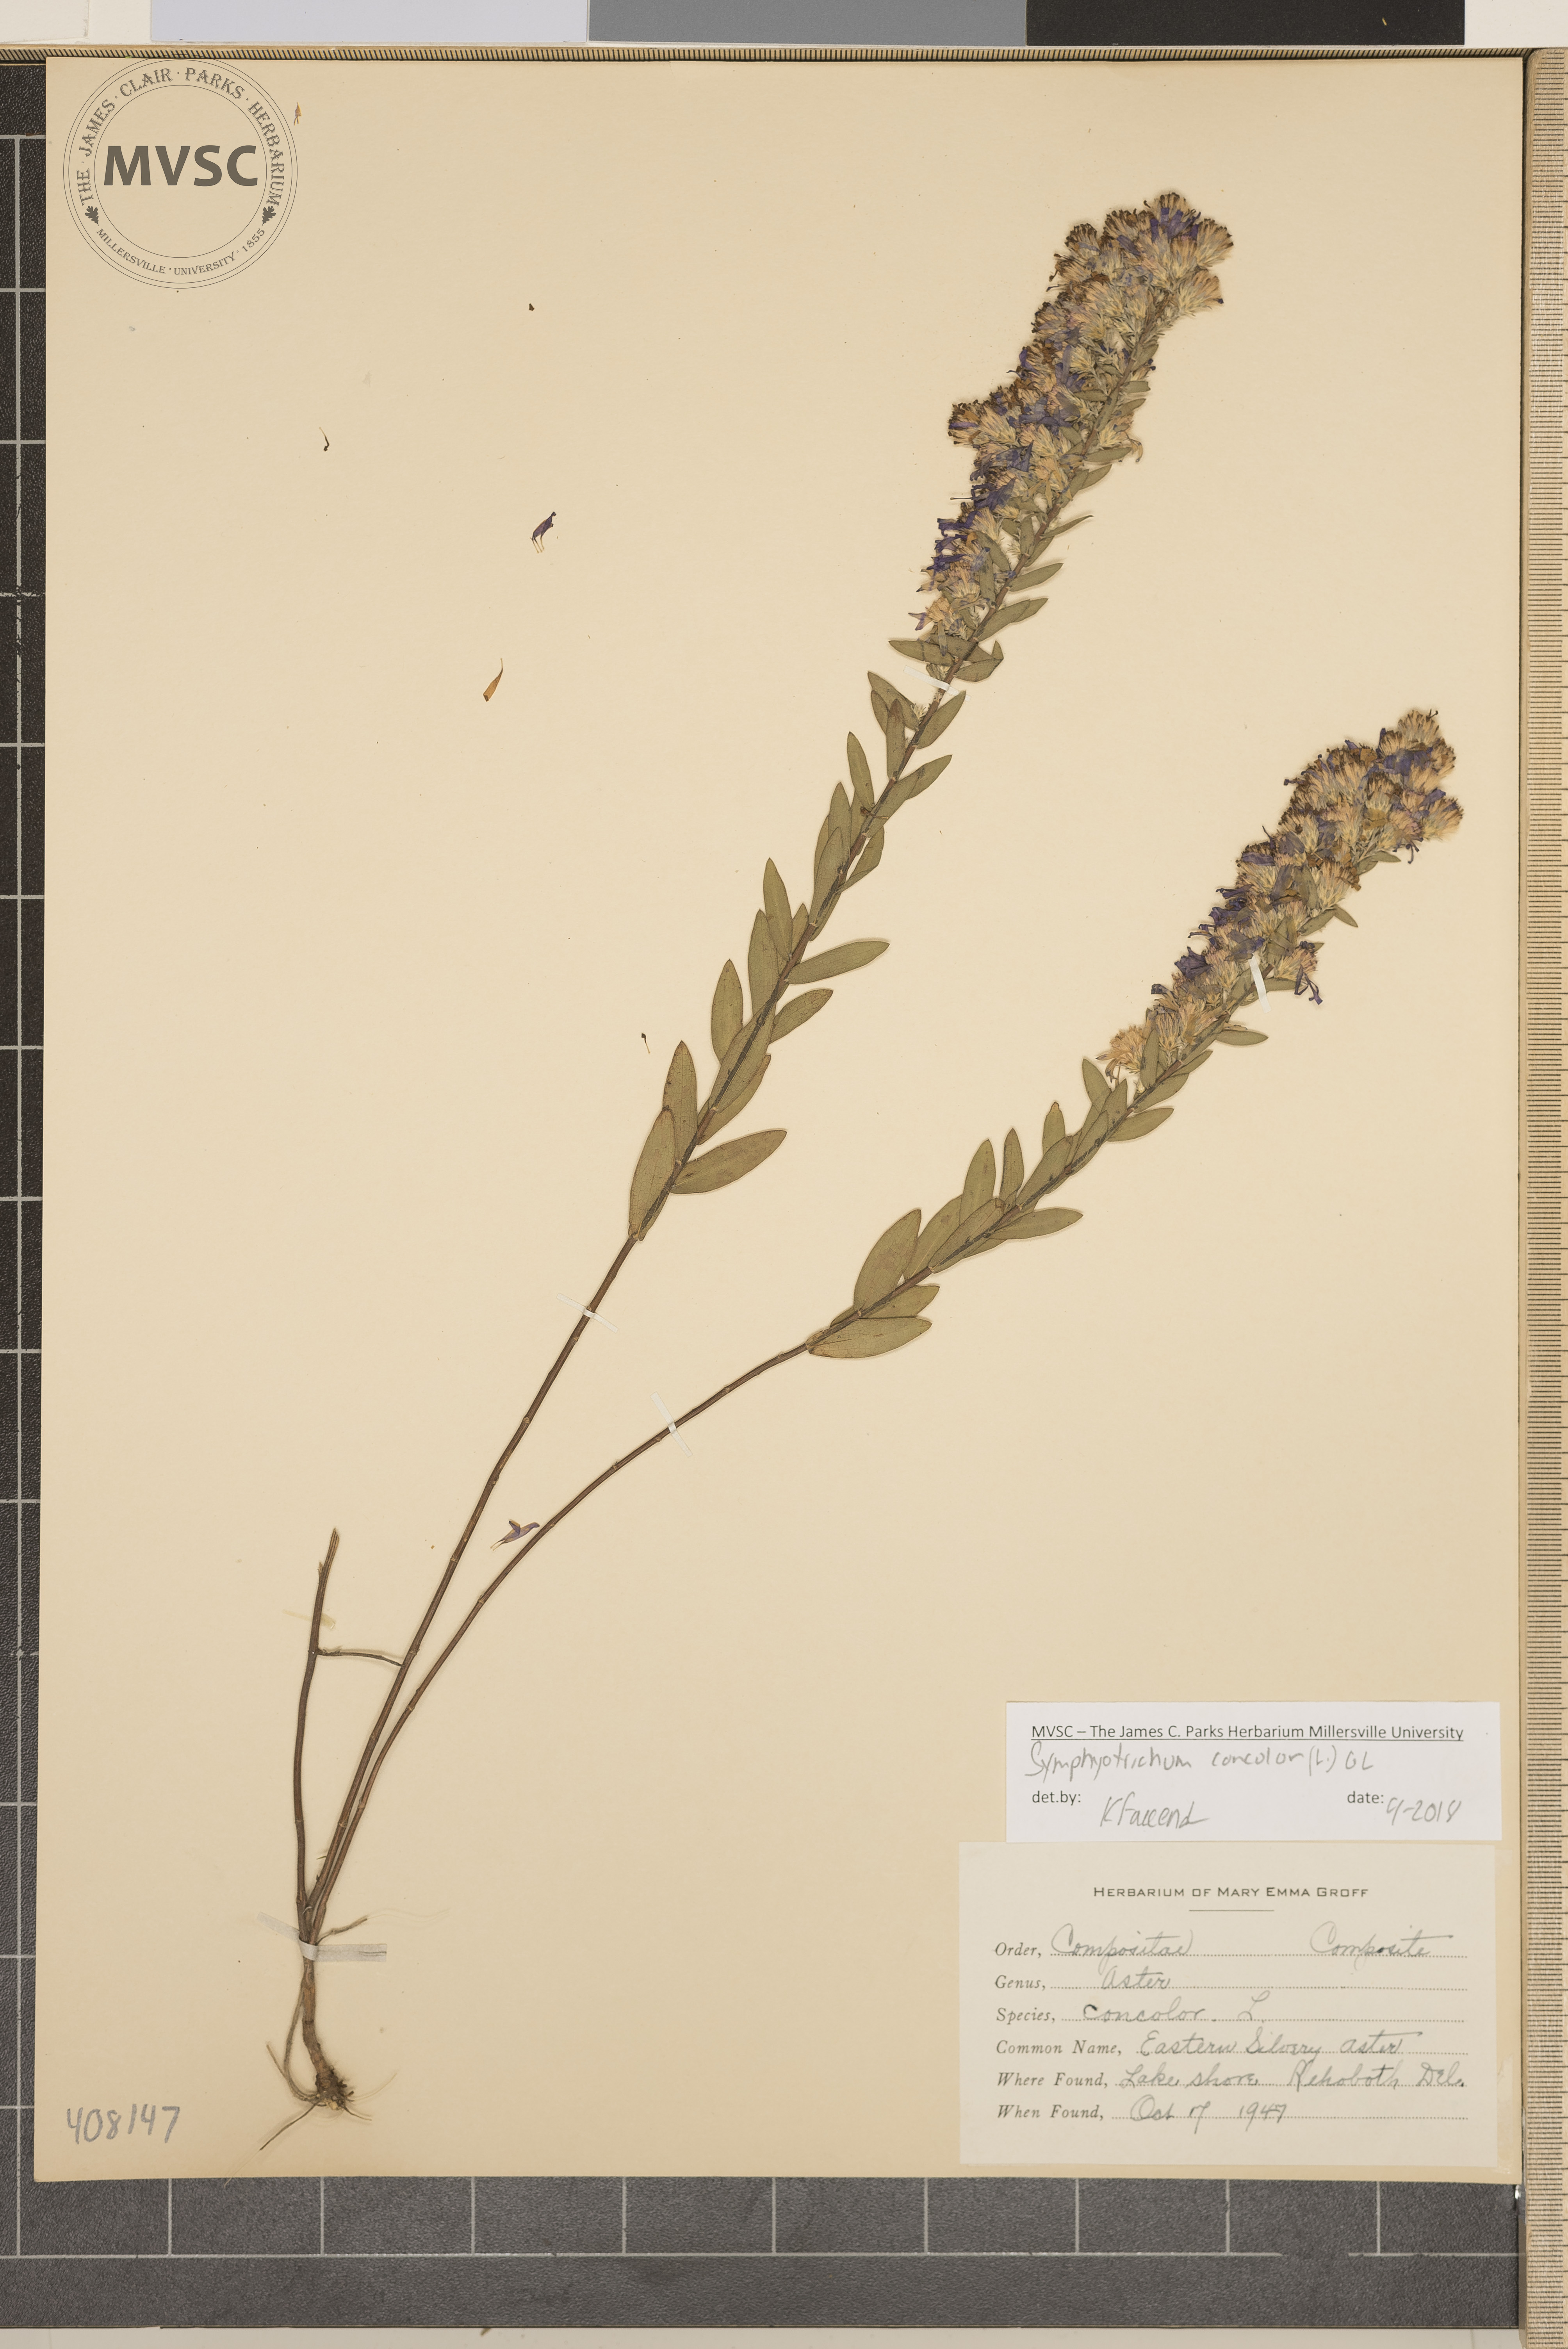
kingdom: Plantae
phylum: Tracheophyta
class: Magnoliopsida
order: Asterales
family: Asteraceae
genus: Symphyotrichum
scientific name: Symphyotrichum concolor
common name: Eastern Silvery Aster
